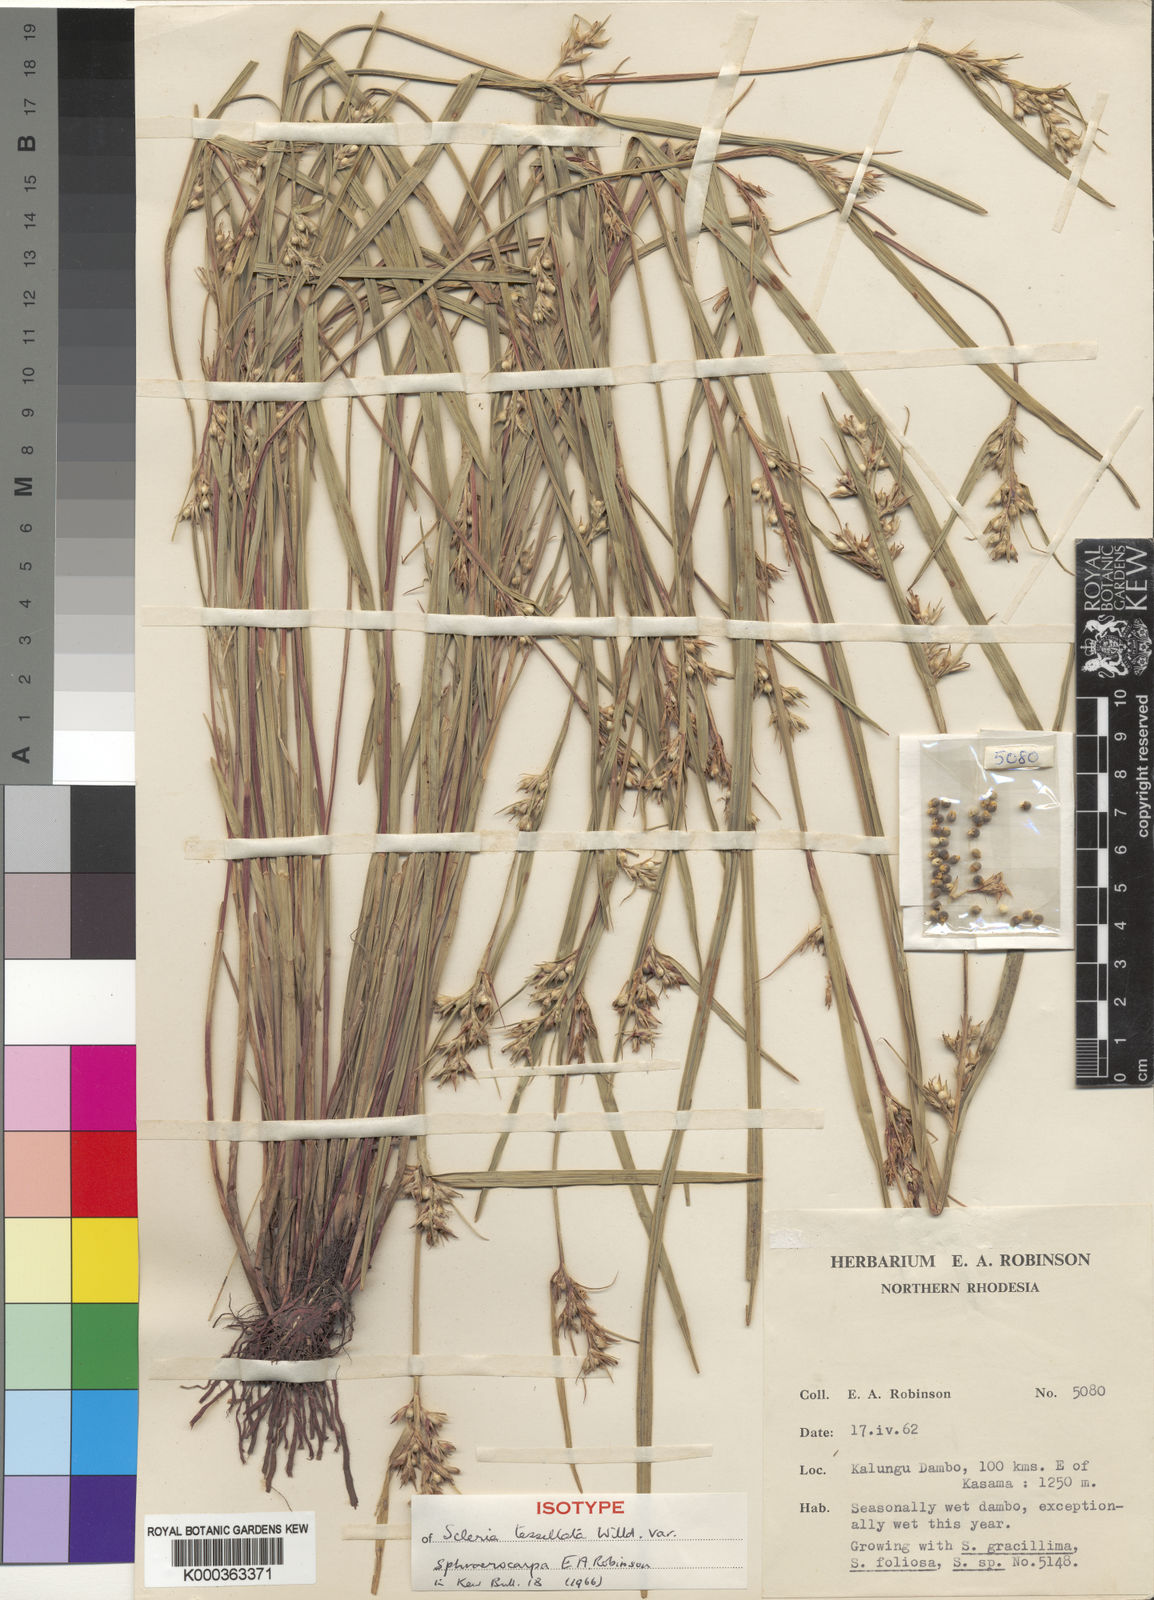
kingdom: Plantae
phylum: Tracheophyta
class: Liliopsida
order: Poales
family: Cyperaceae
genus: Scleria
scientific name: Scleria tessellata
